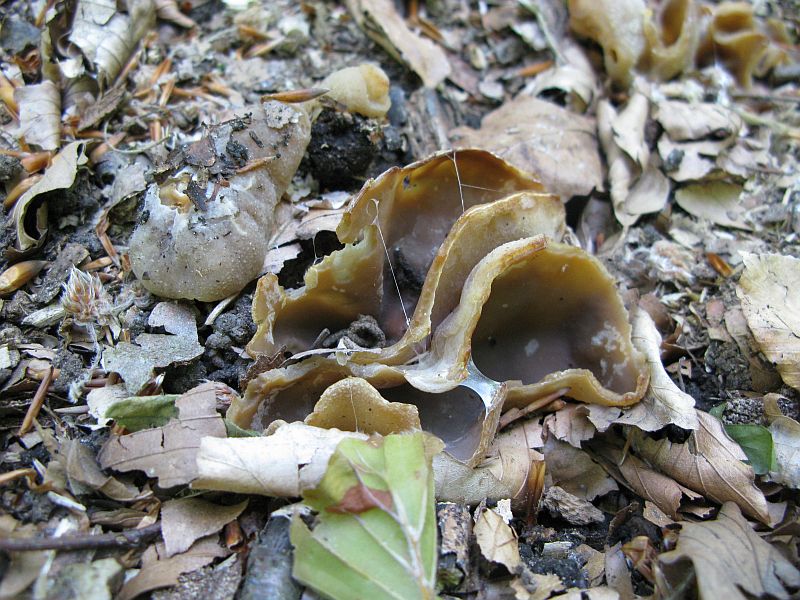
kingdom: Fungi
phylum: Ascomycota
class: Pezizomycetes
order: Pezizales
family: Pezizaceae
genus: Peziza
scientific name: Peziza arvernensis
